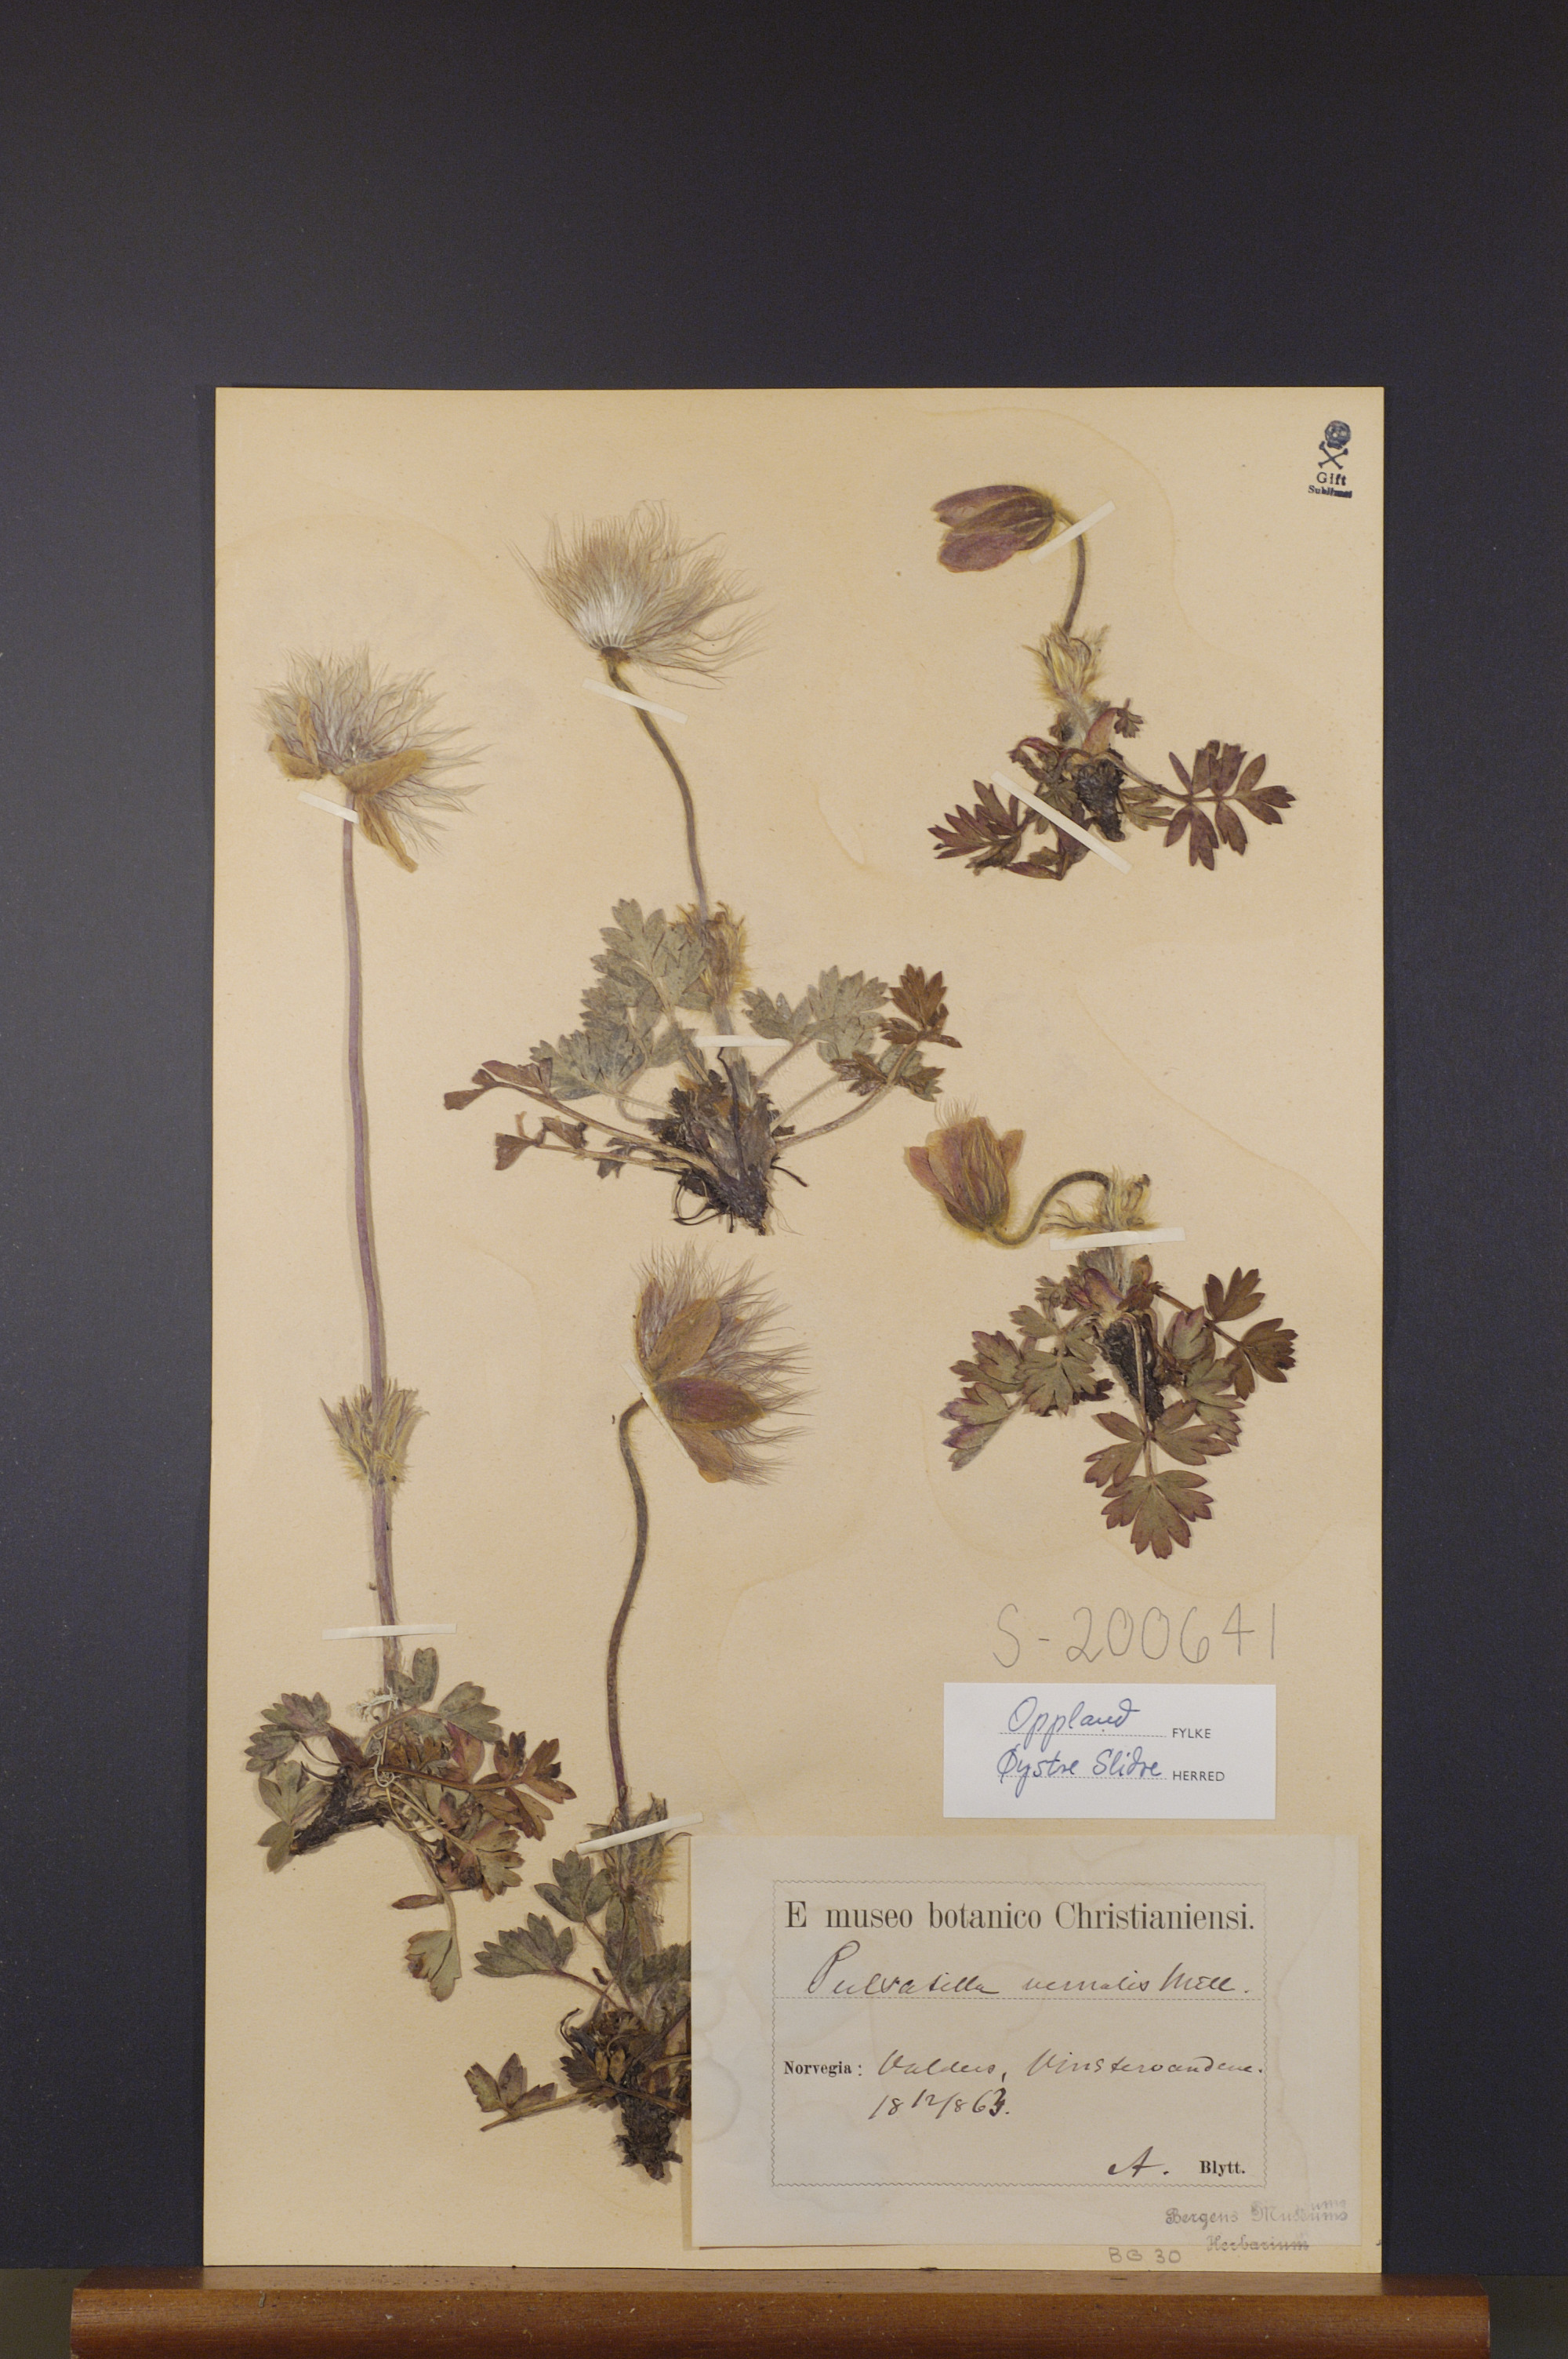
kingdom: Plantae
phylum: Tracheophyta
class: Magnoliopsida
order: Ranunculales
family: Ranunculaceae
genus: Pulsatilla
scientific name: Pulsatilla vernalis
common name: Spring pasque flower
